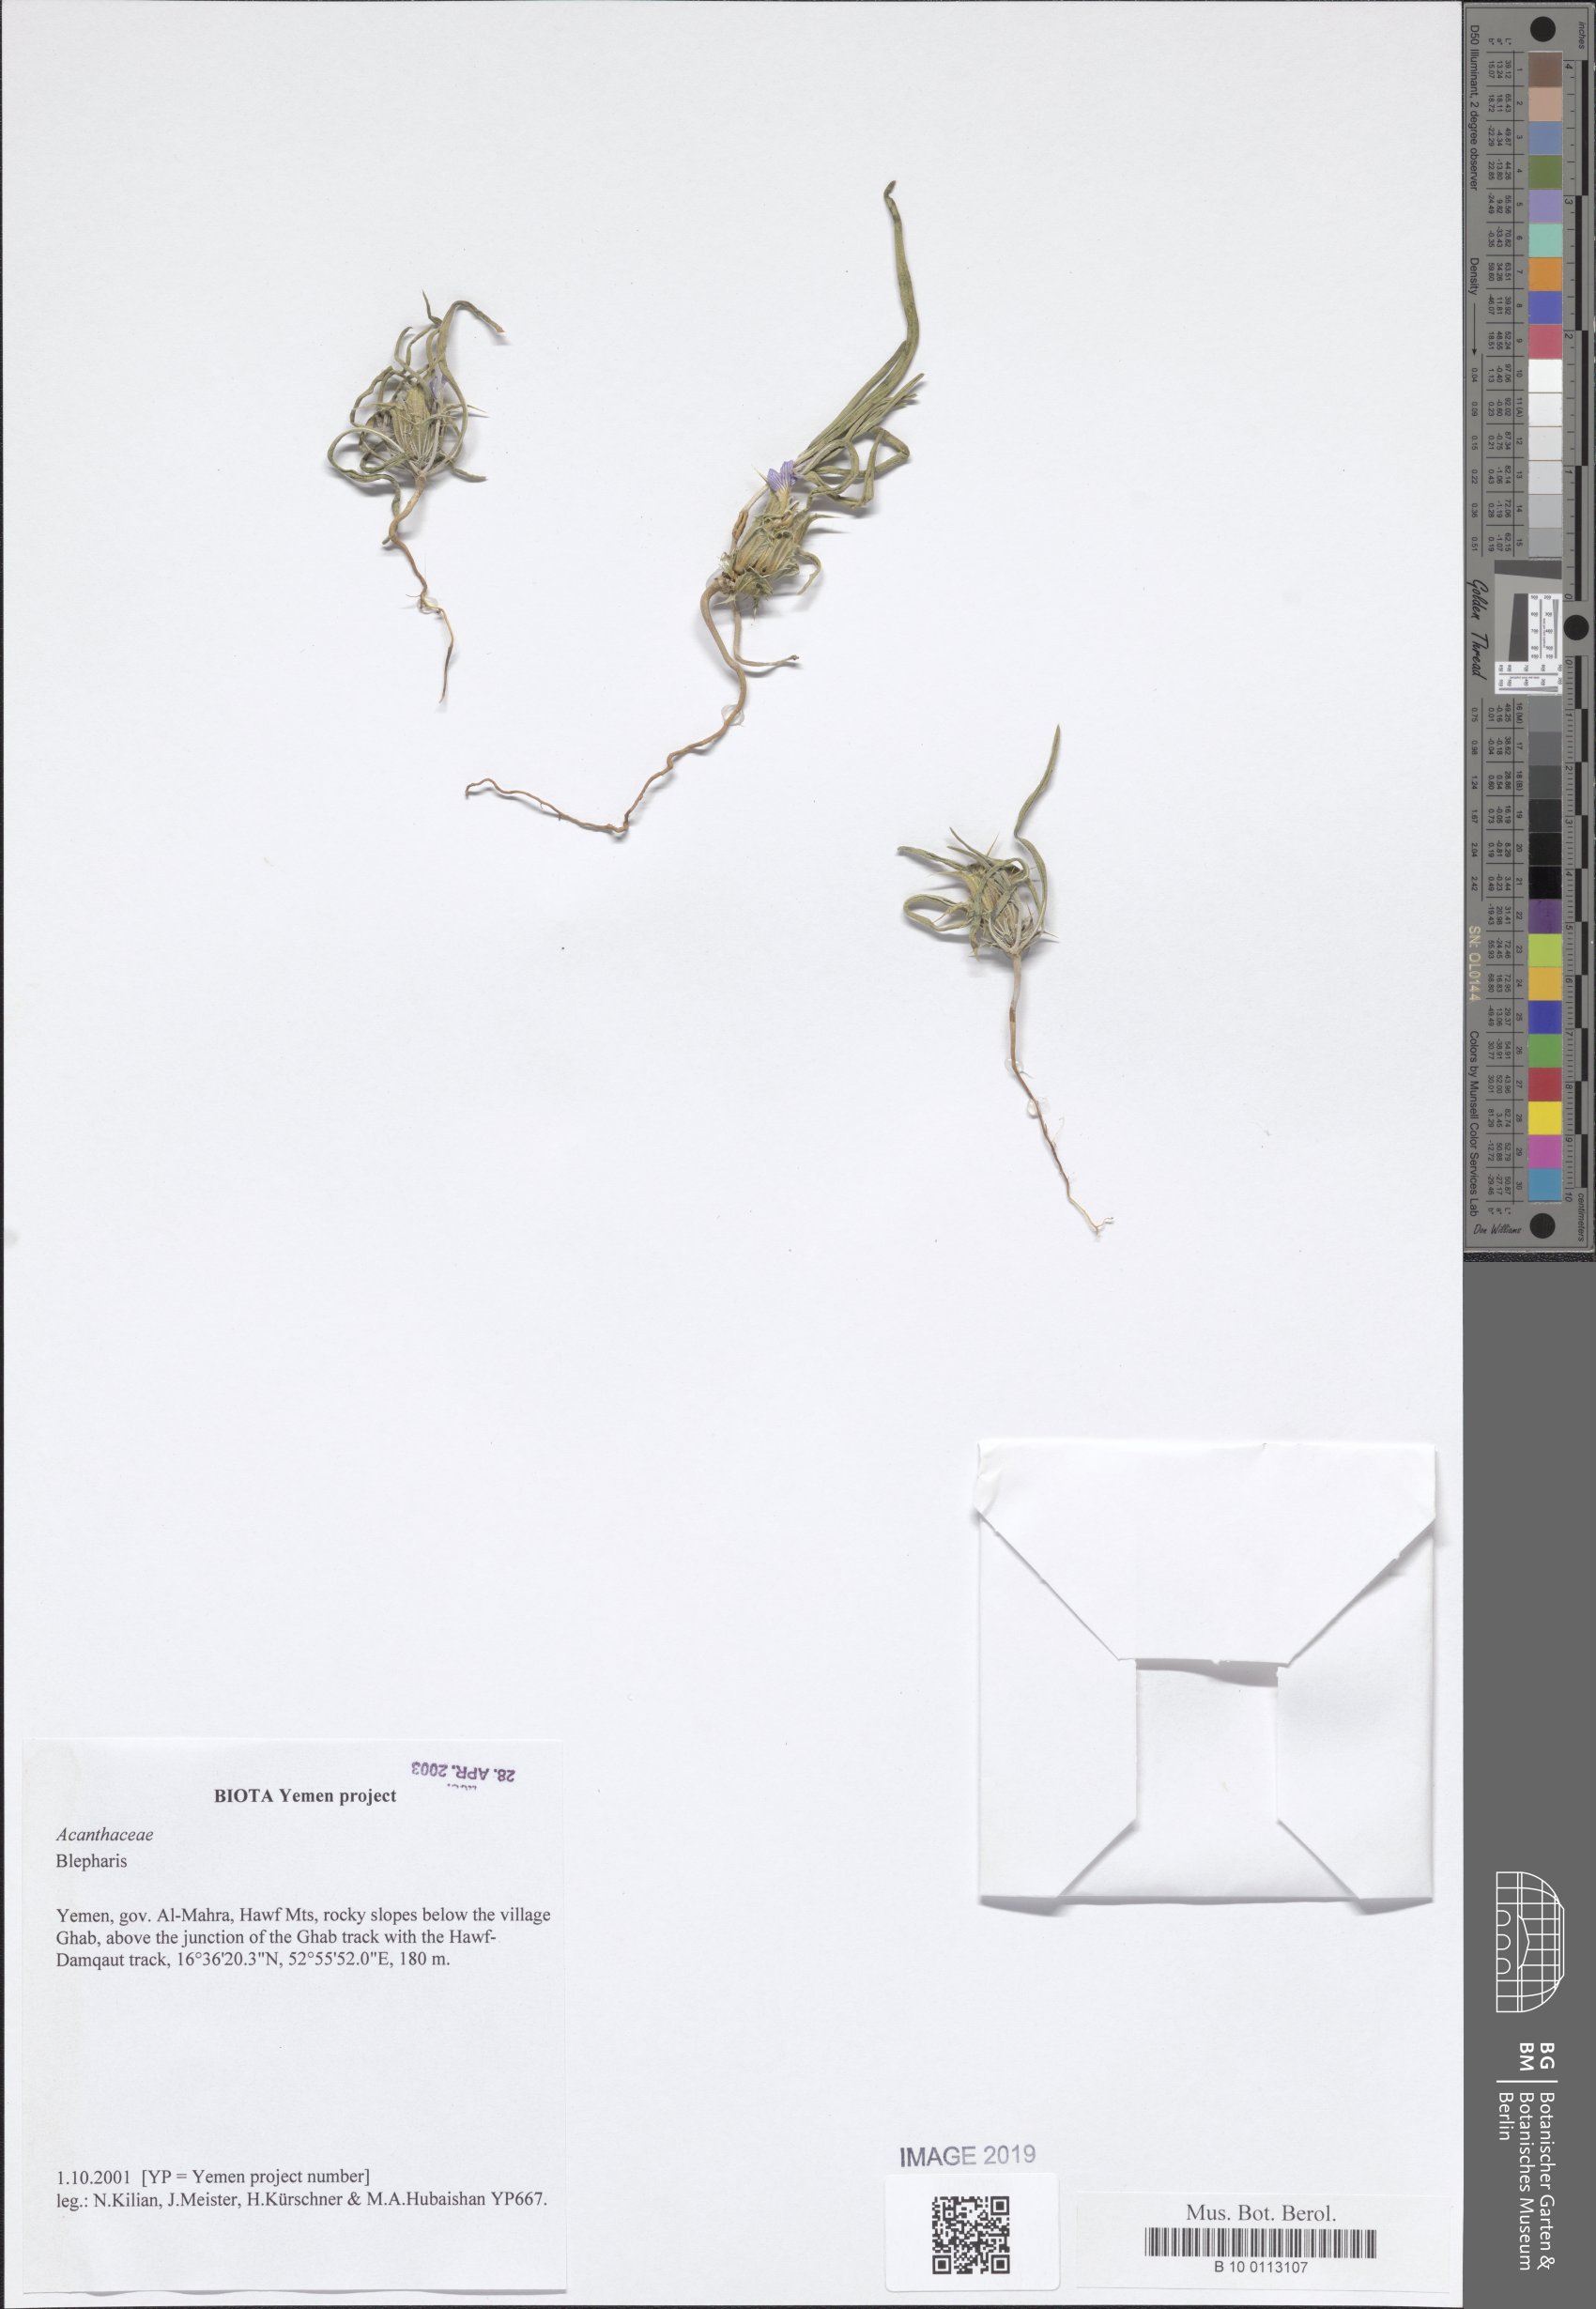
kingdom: Plantae
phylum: Tracheophyta
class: Magnoliopsida
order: Lamiales
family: Acanthaceae
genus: Blepharis
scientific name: Blepharis
